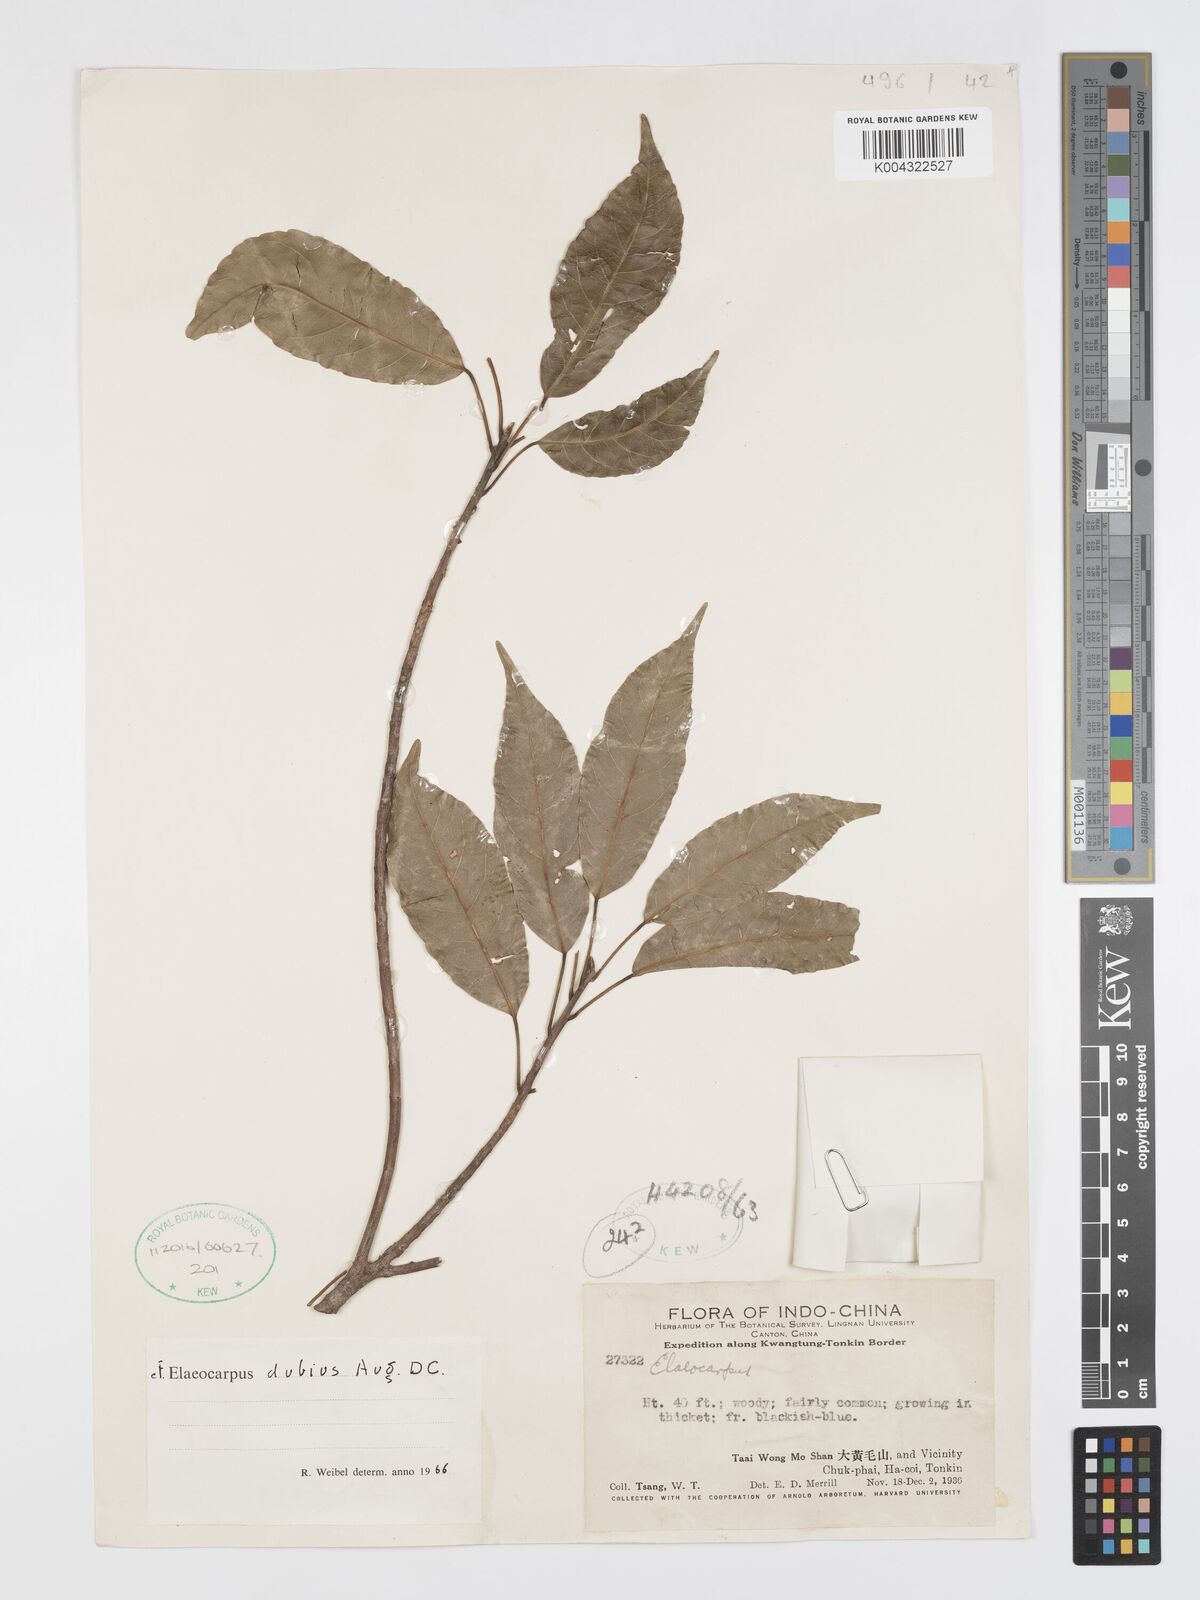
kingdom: Plantae
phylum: Tracheophyta
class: Magnoliopsida
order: Oxalidales
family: Elaeocarpaceae
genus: Elaeocarpus
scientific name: Elaeocarpus dubius
